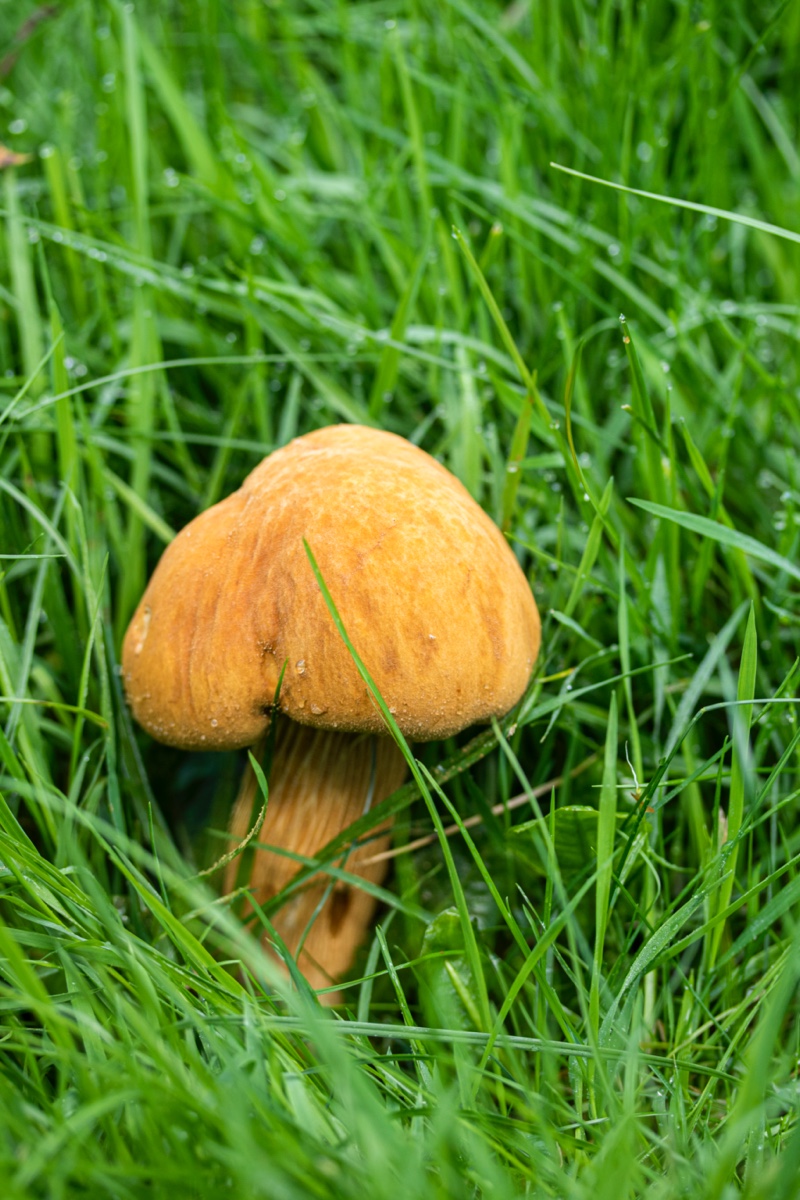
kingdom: Fungi
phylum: Basidiomycota
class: Agaricomycetes
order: Agaricales
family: Tricholomataceae
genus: Phaeolepiota
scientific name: Phaeolepiota aurea
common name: gyldenhat
